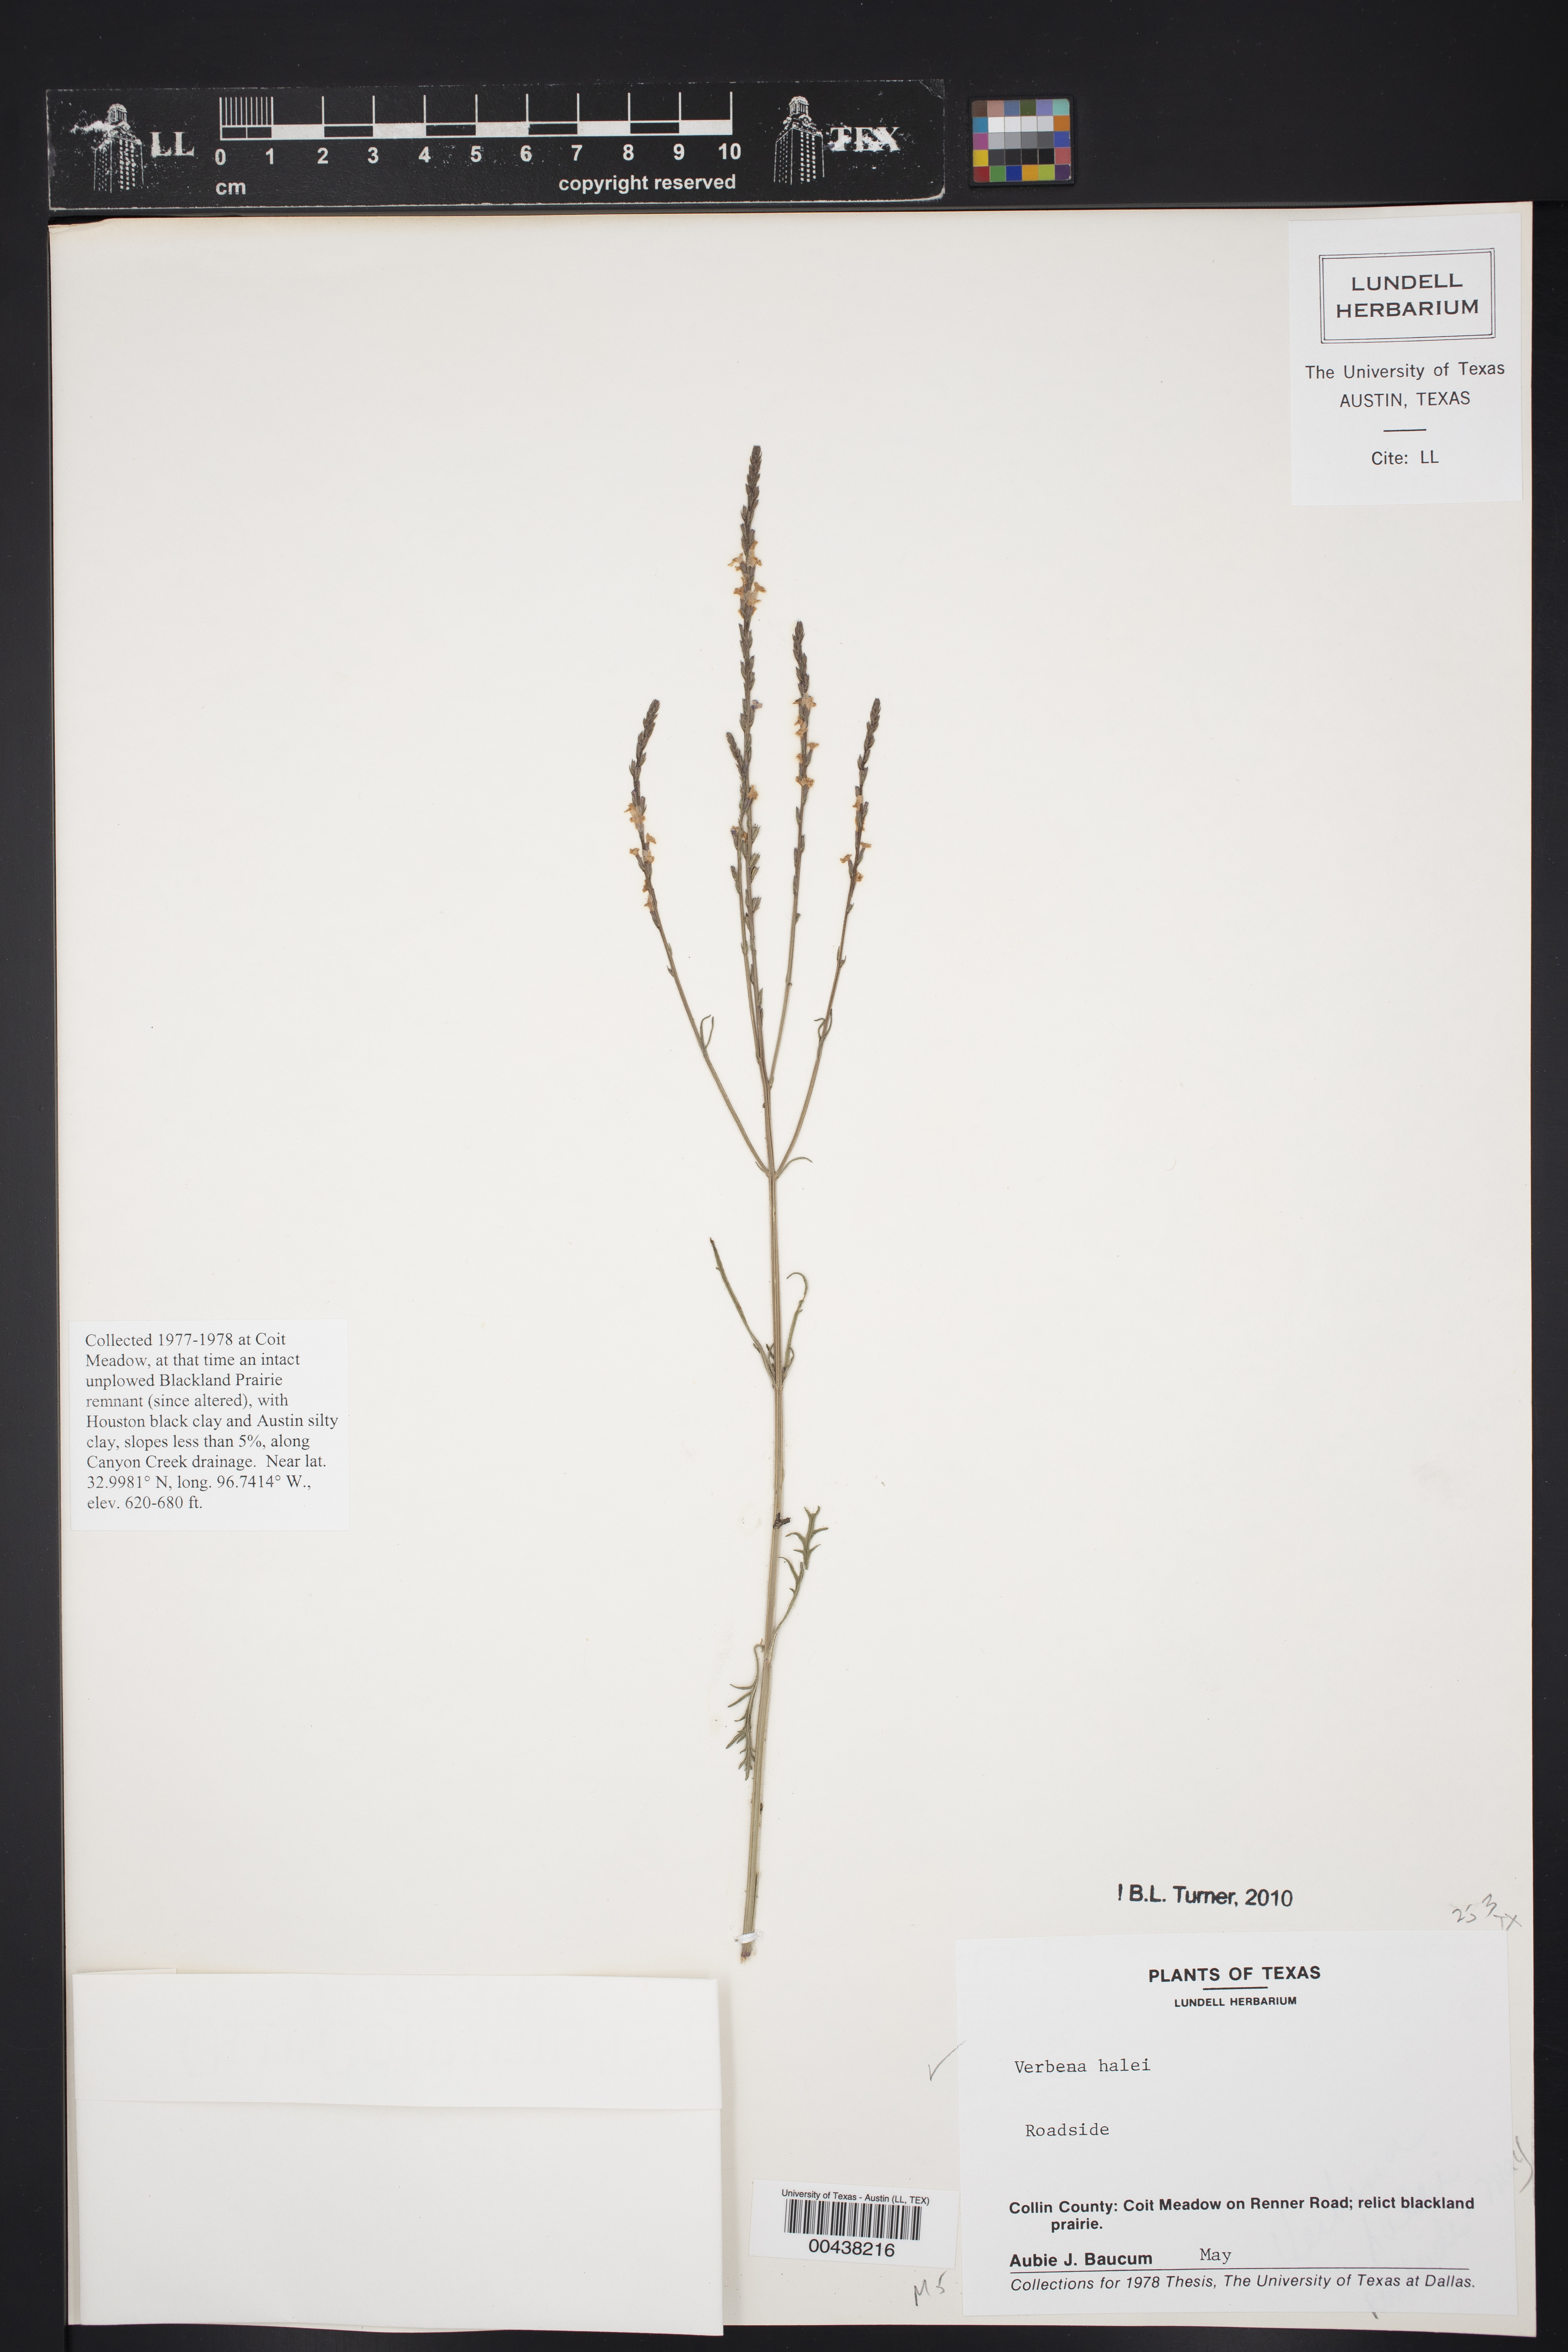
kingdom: Plantae
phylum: Tracheophyta
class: Magnoliopsida
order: Lamiales
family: Verbenaceae
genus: Verbena
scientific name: Verbena halei
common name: Texas vervain
